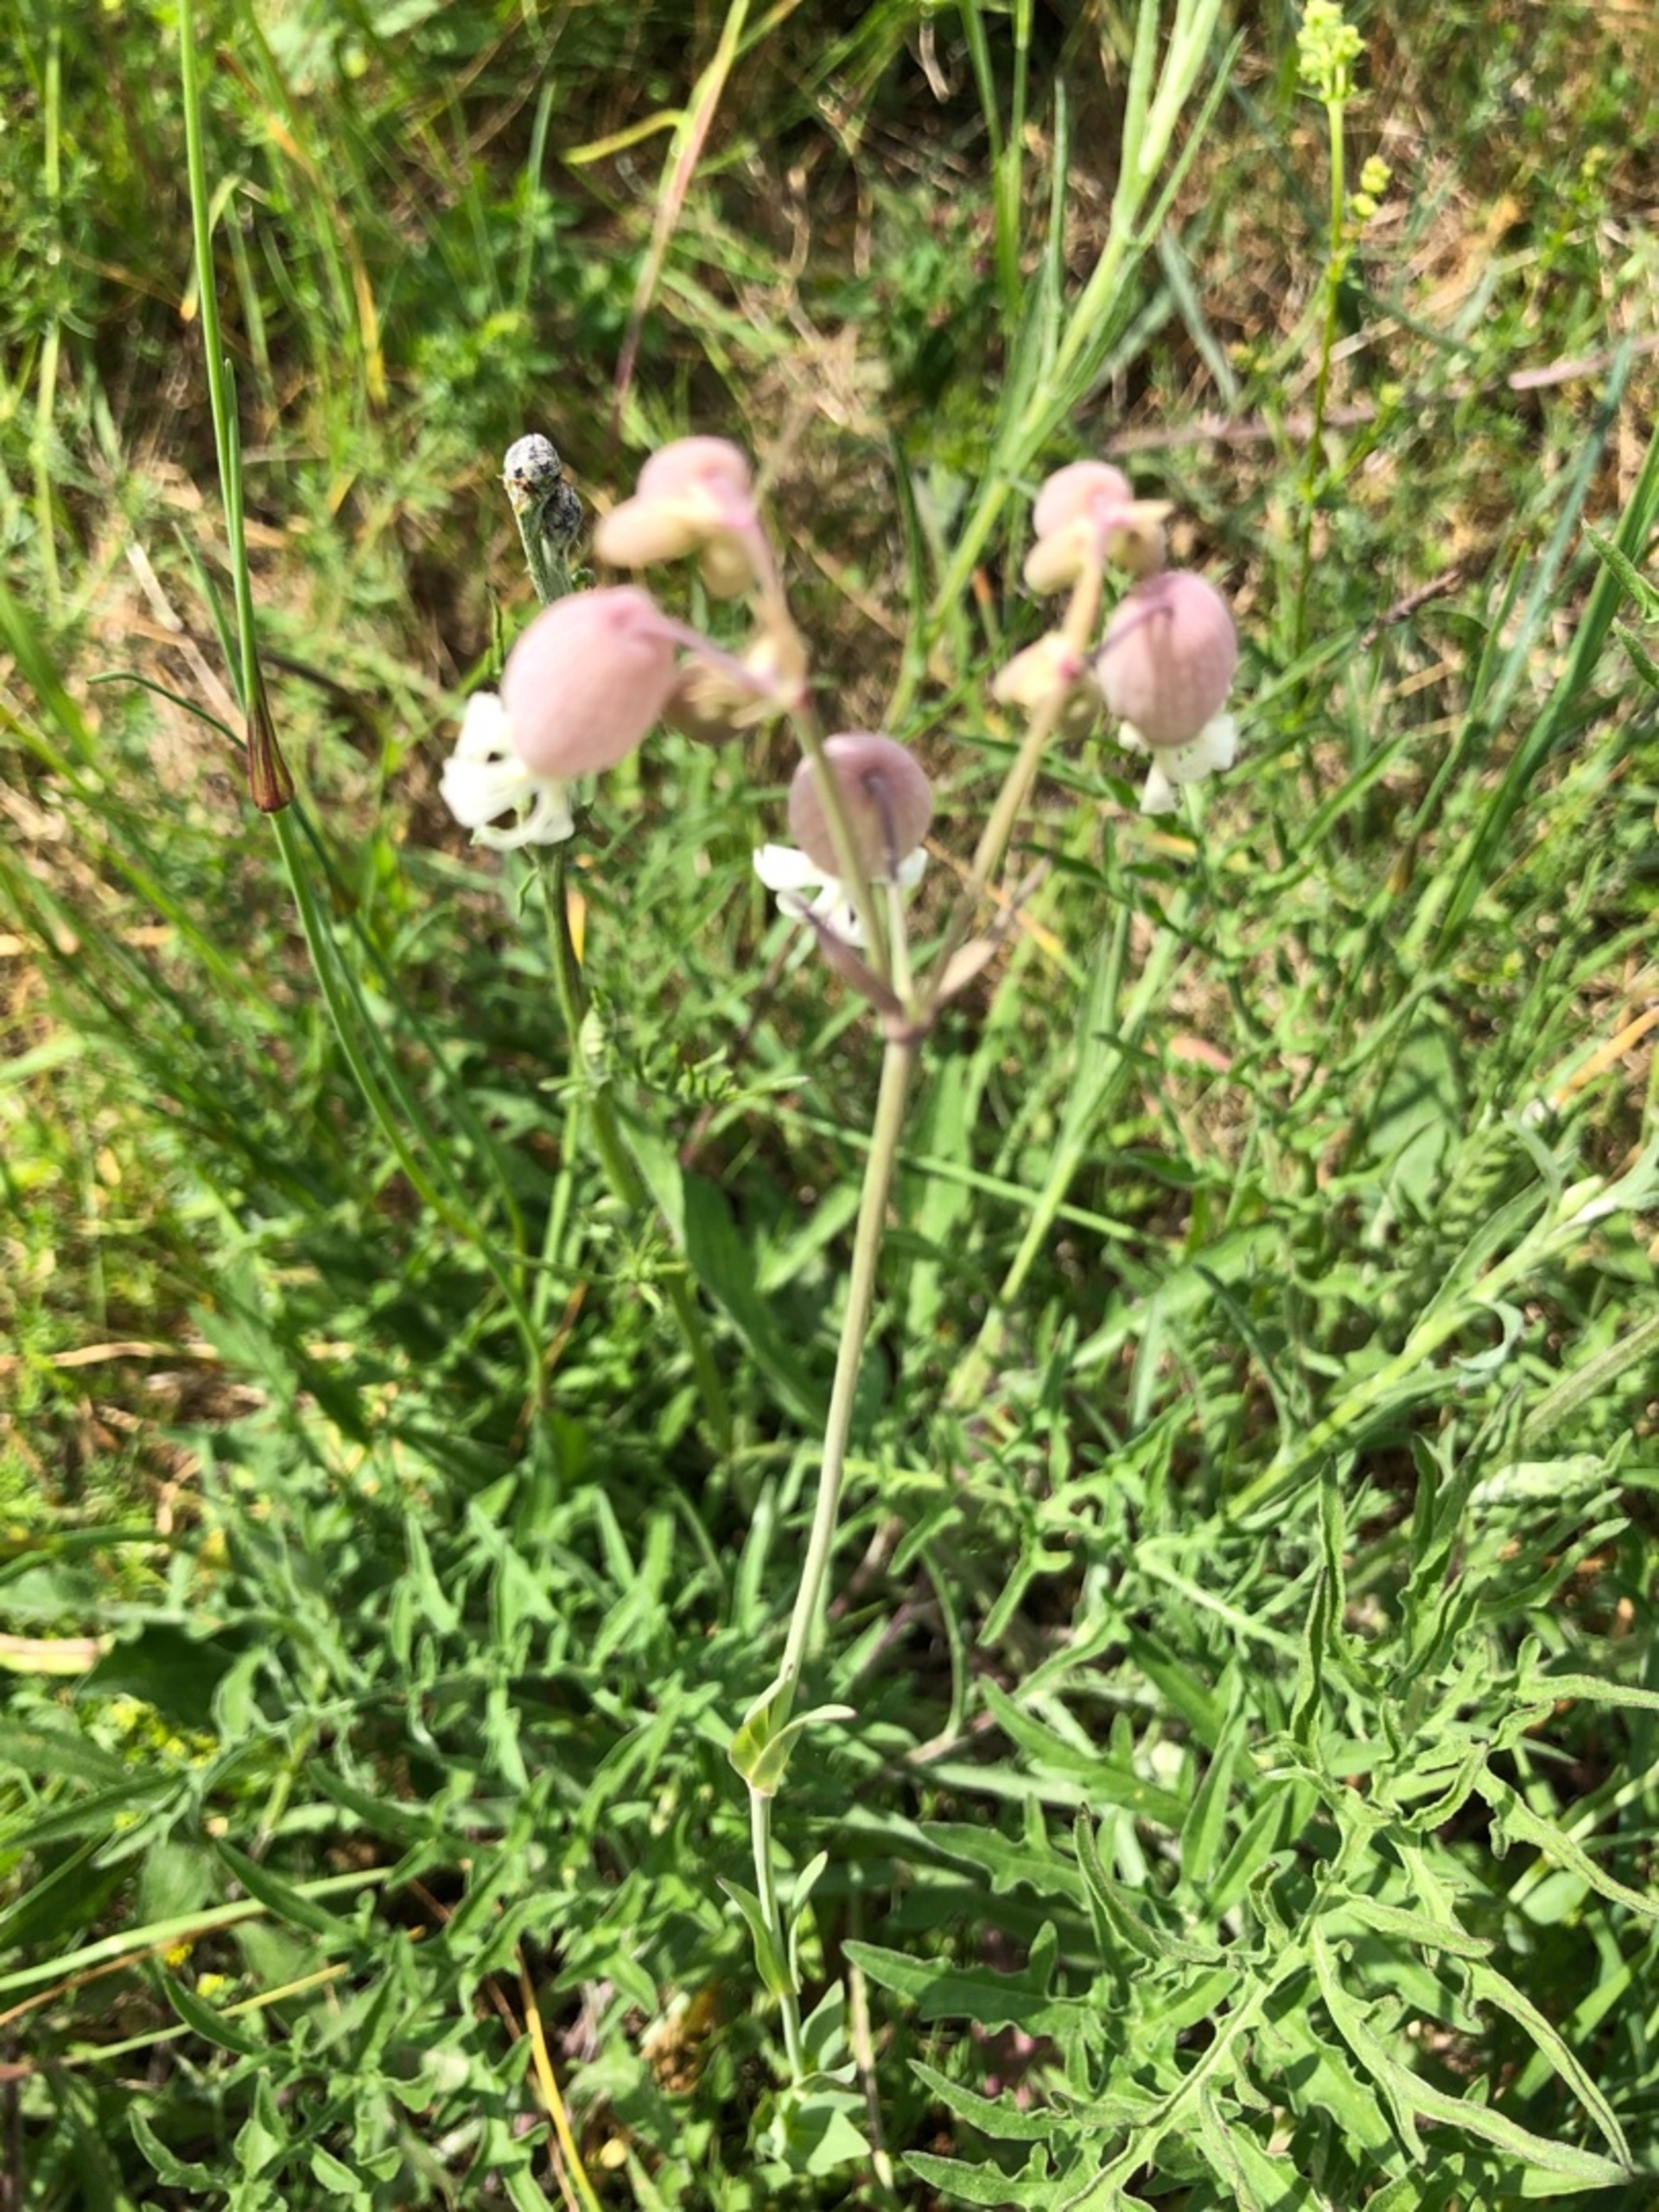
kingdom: Plantae
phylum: Tracheophyta
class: Magnoliopsida
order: Caryophyllales
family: Caryophyllaceae
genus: Silene
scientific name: Silene vulgaris
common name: Blæresmælde
